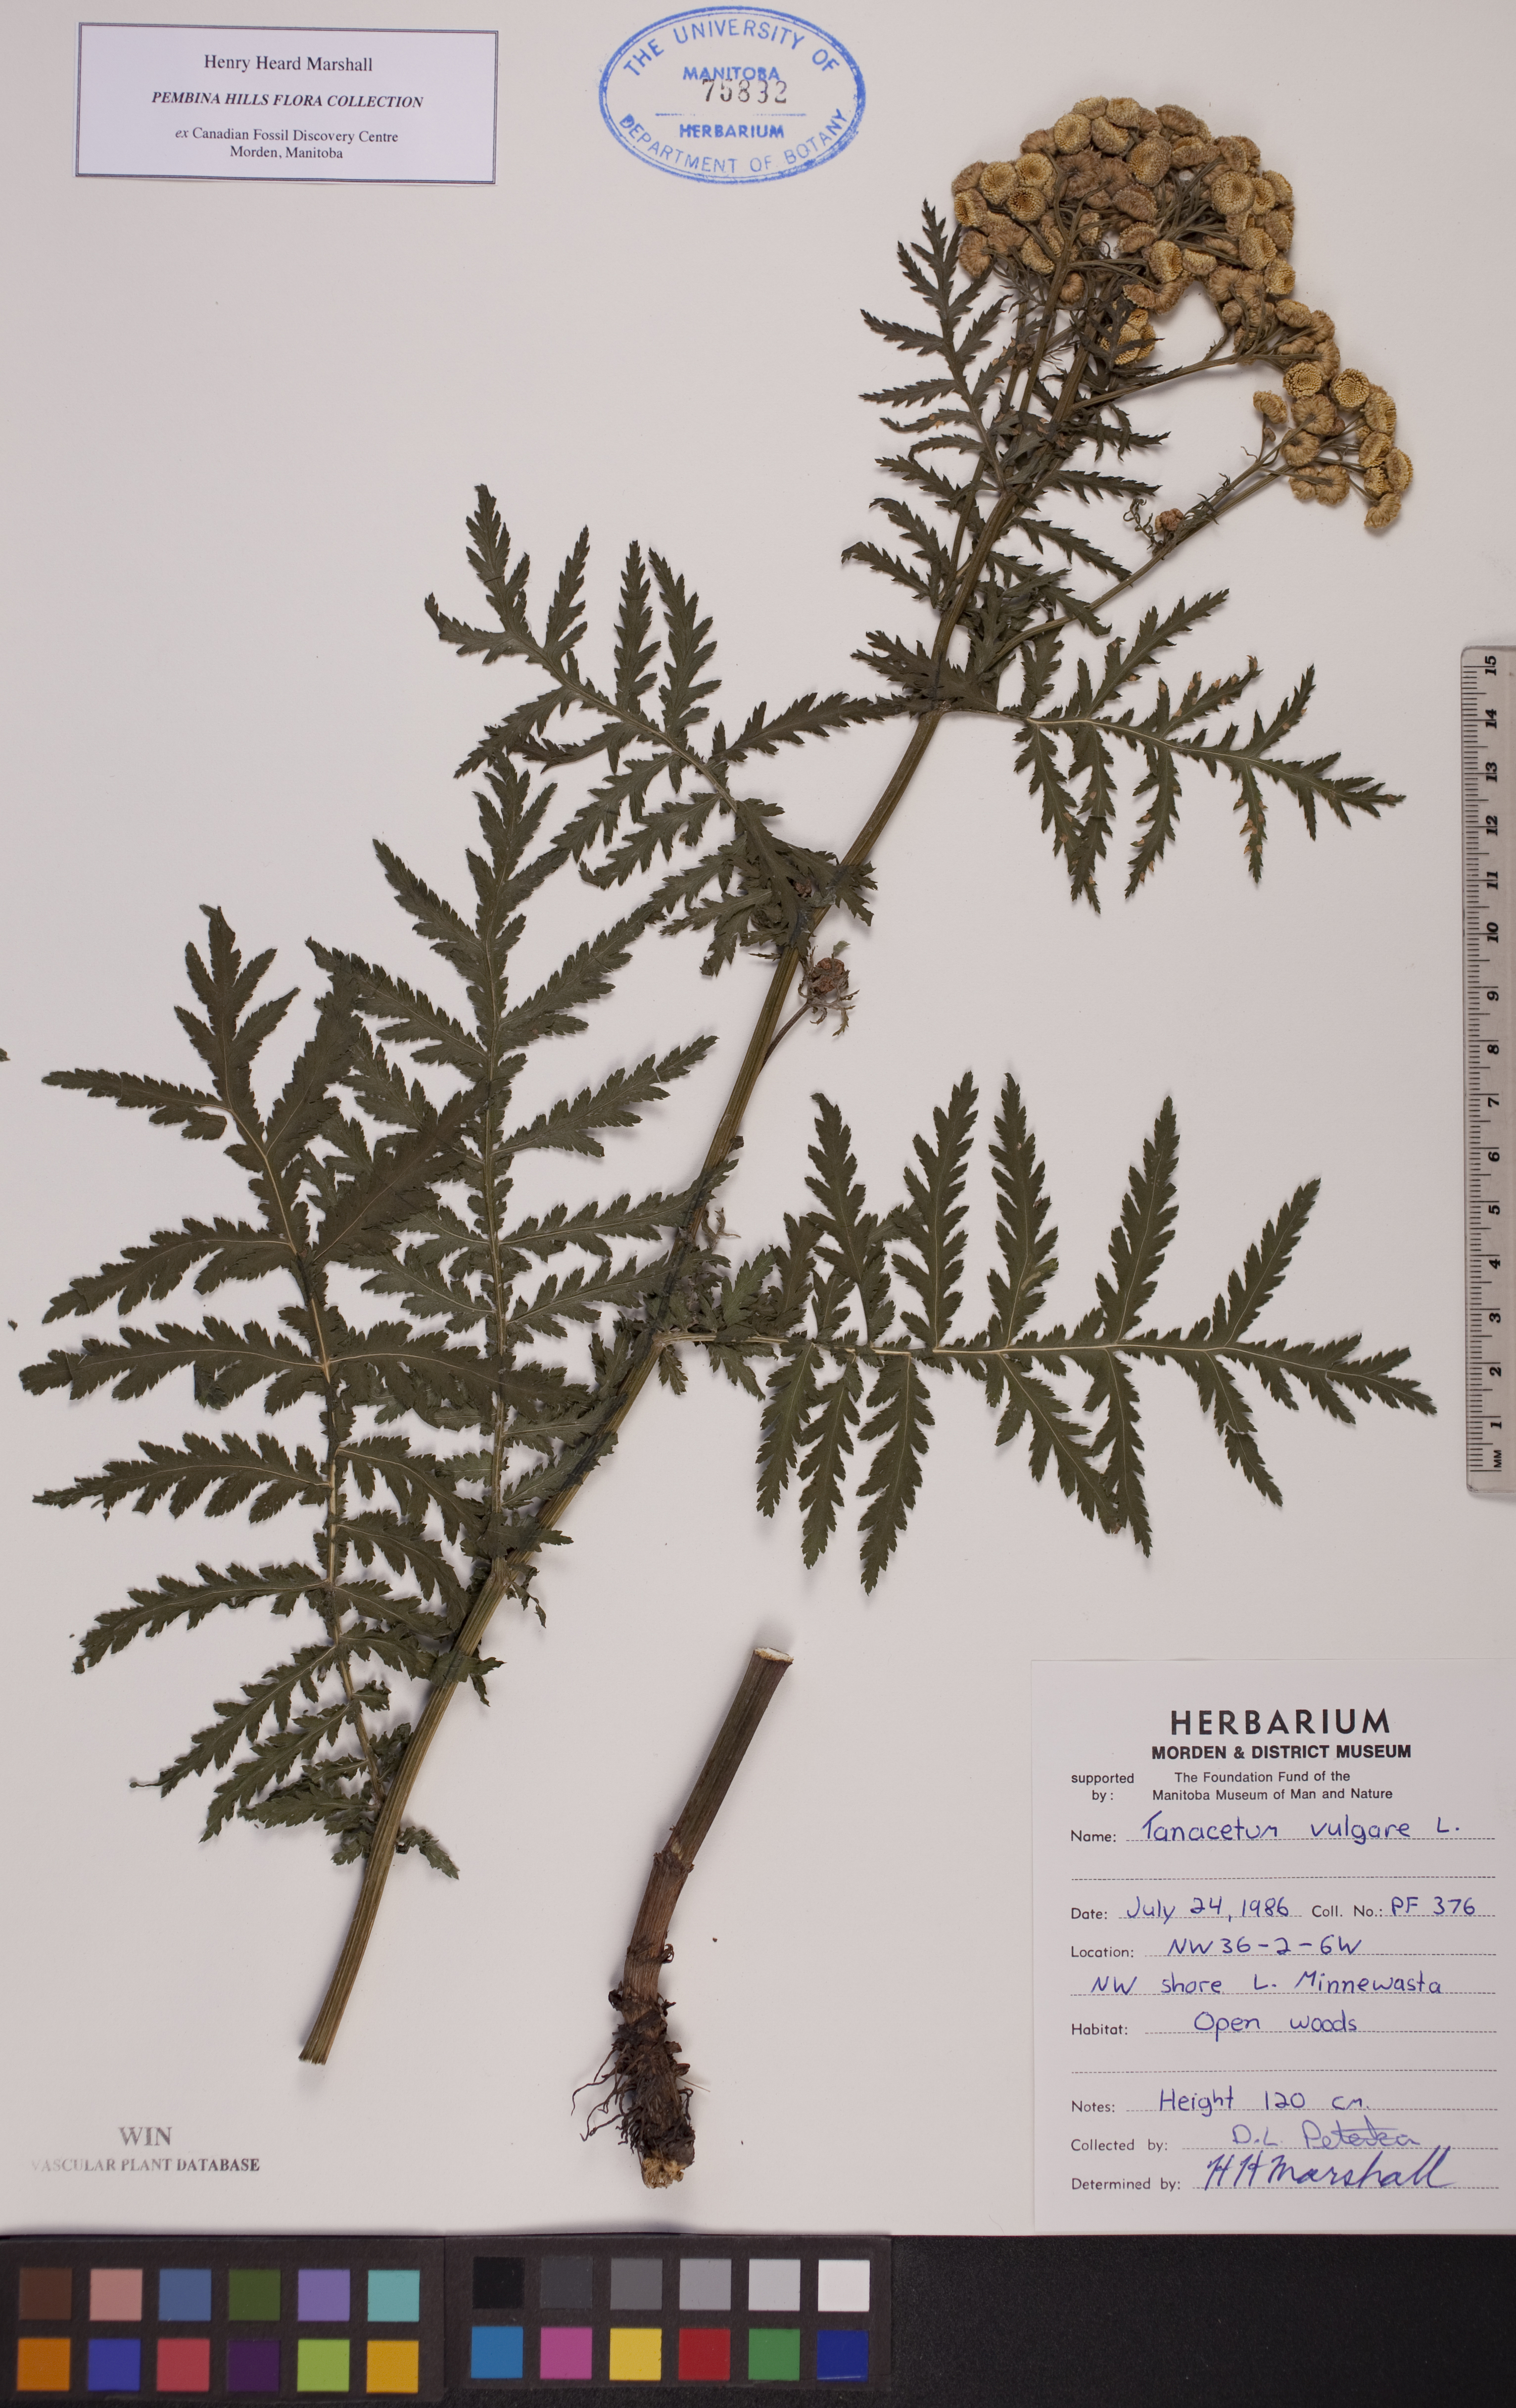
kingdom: Plantae
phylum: Tracheophyta
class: Magnoliopsida
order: Asterales
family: Asteraceae
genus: Tanacetum
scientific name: Tanacetum vulgare
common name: Common tansy
